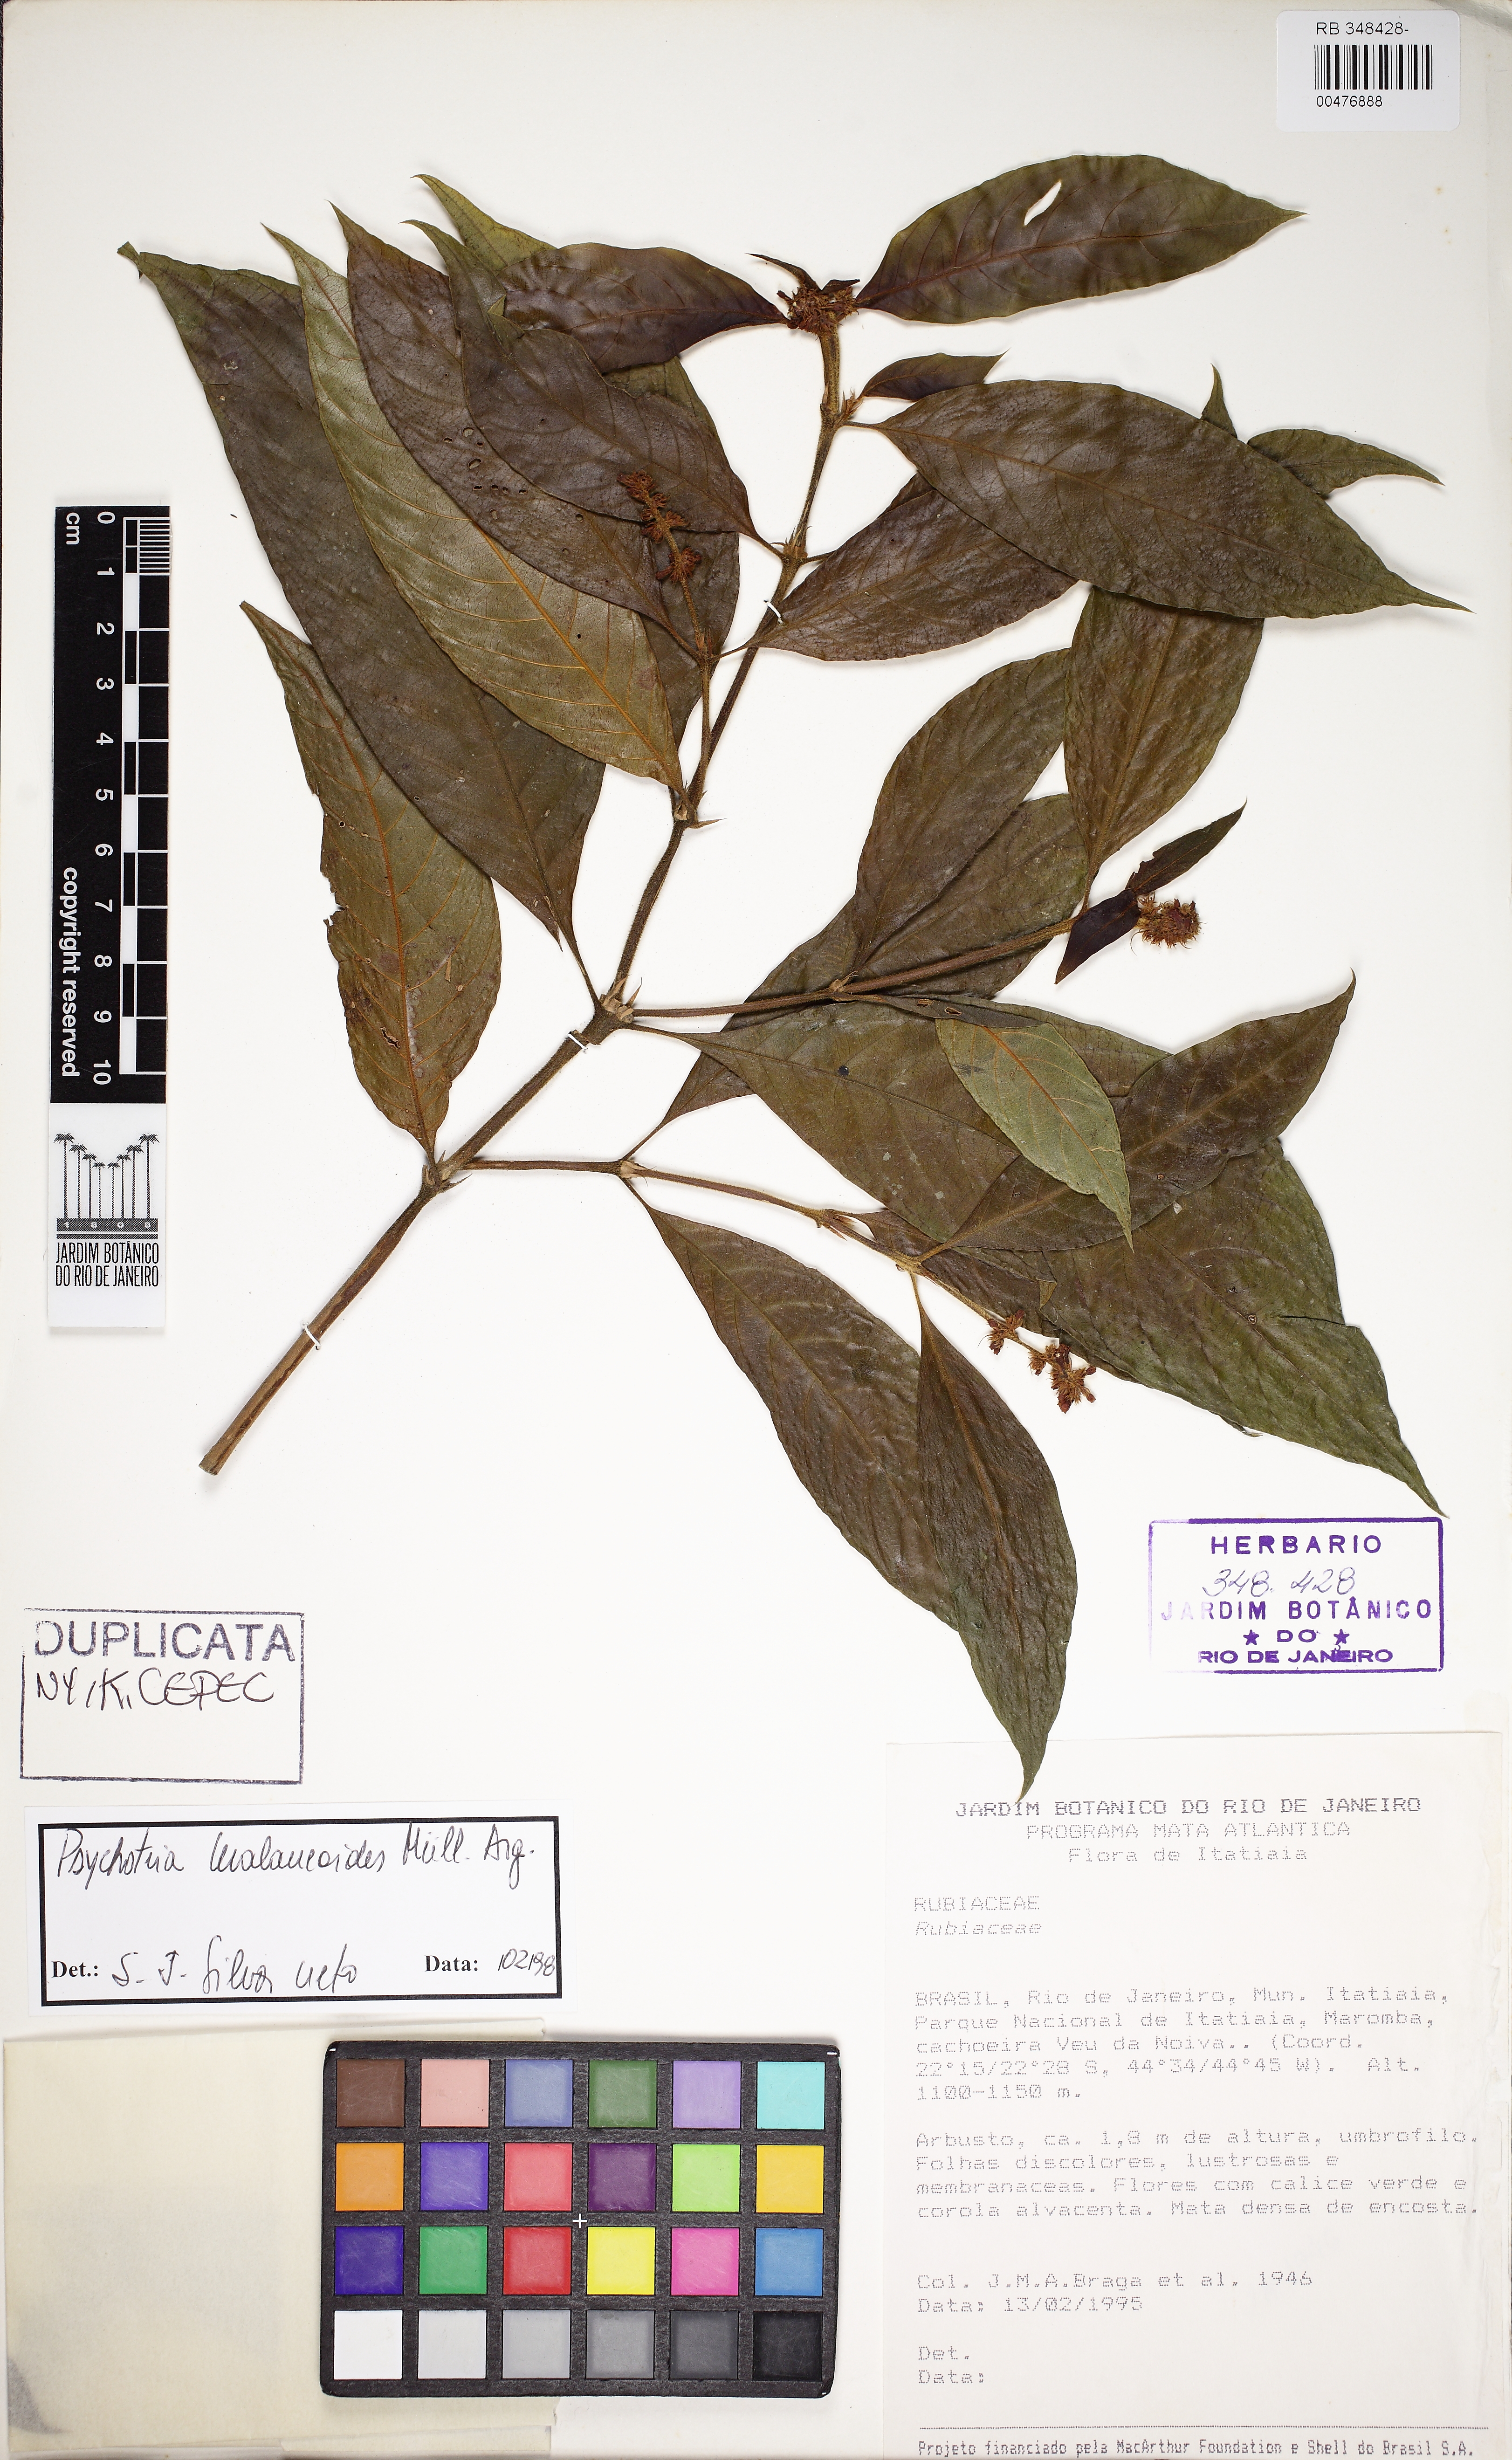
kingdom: Plantae
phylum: Tracheophyta
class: Magnoliopsida
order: Gentianales
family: Rubiaceae
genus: Palicourea
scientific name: Palicourea malaneoides
